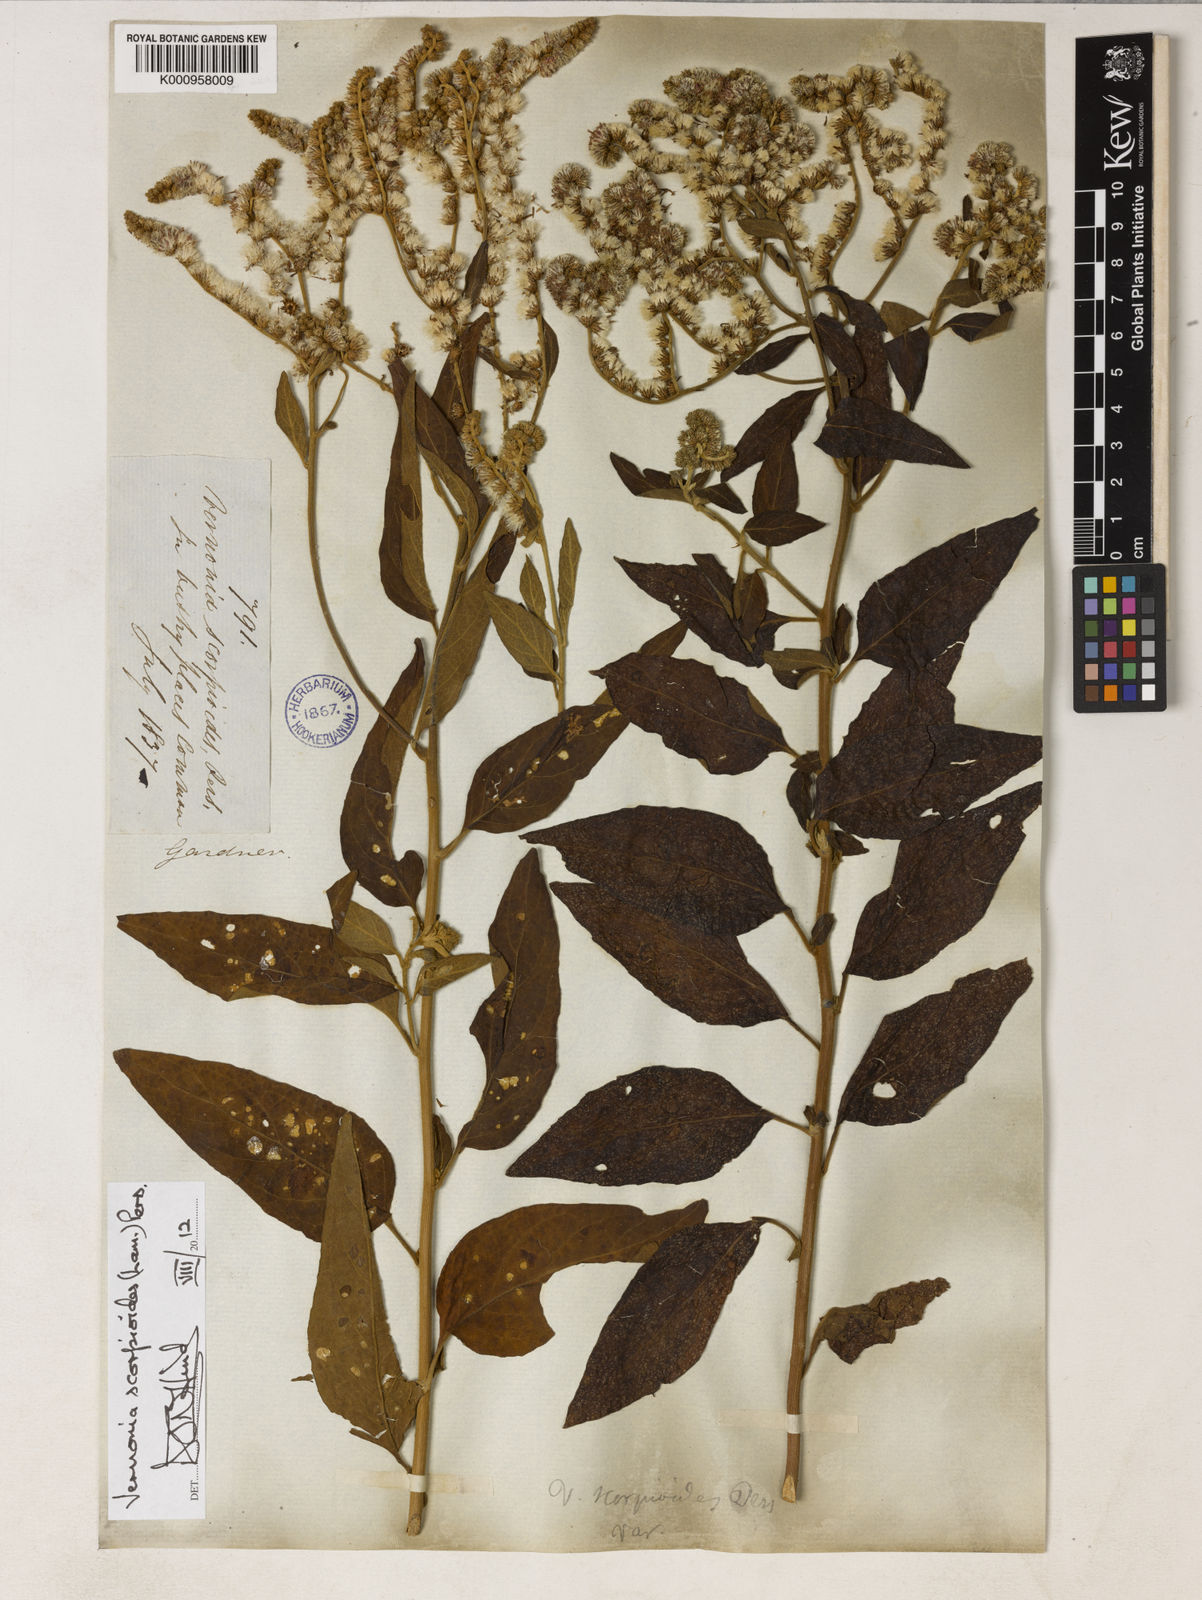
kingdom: Plantae
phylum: Tracheophyta
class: Magnoliopsida
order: Asterales
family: Asteraceae
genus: Cyrtocymura
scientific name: Cyrtocymura scorpioides
